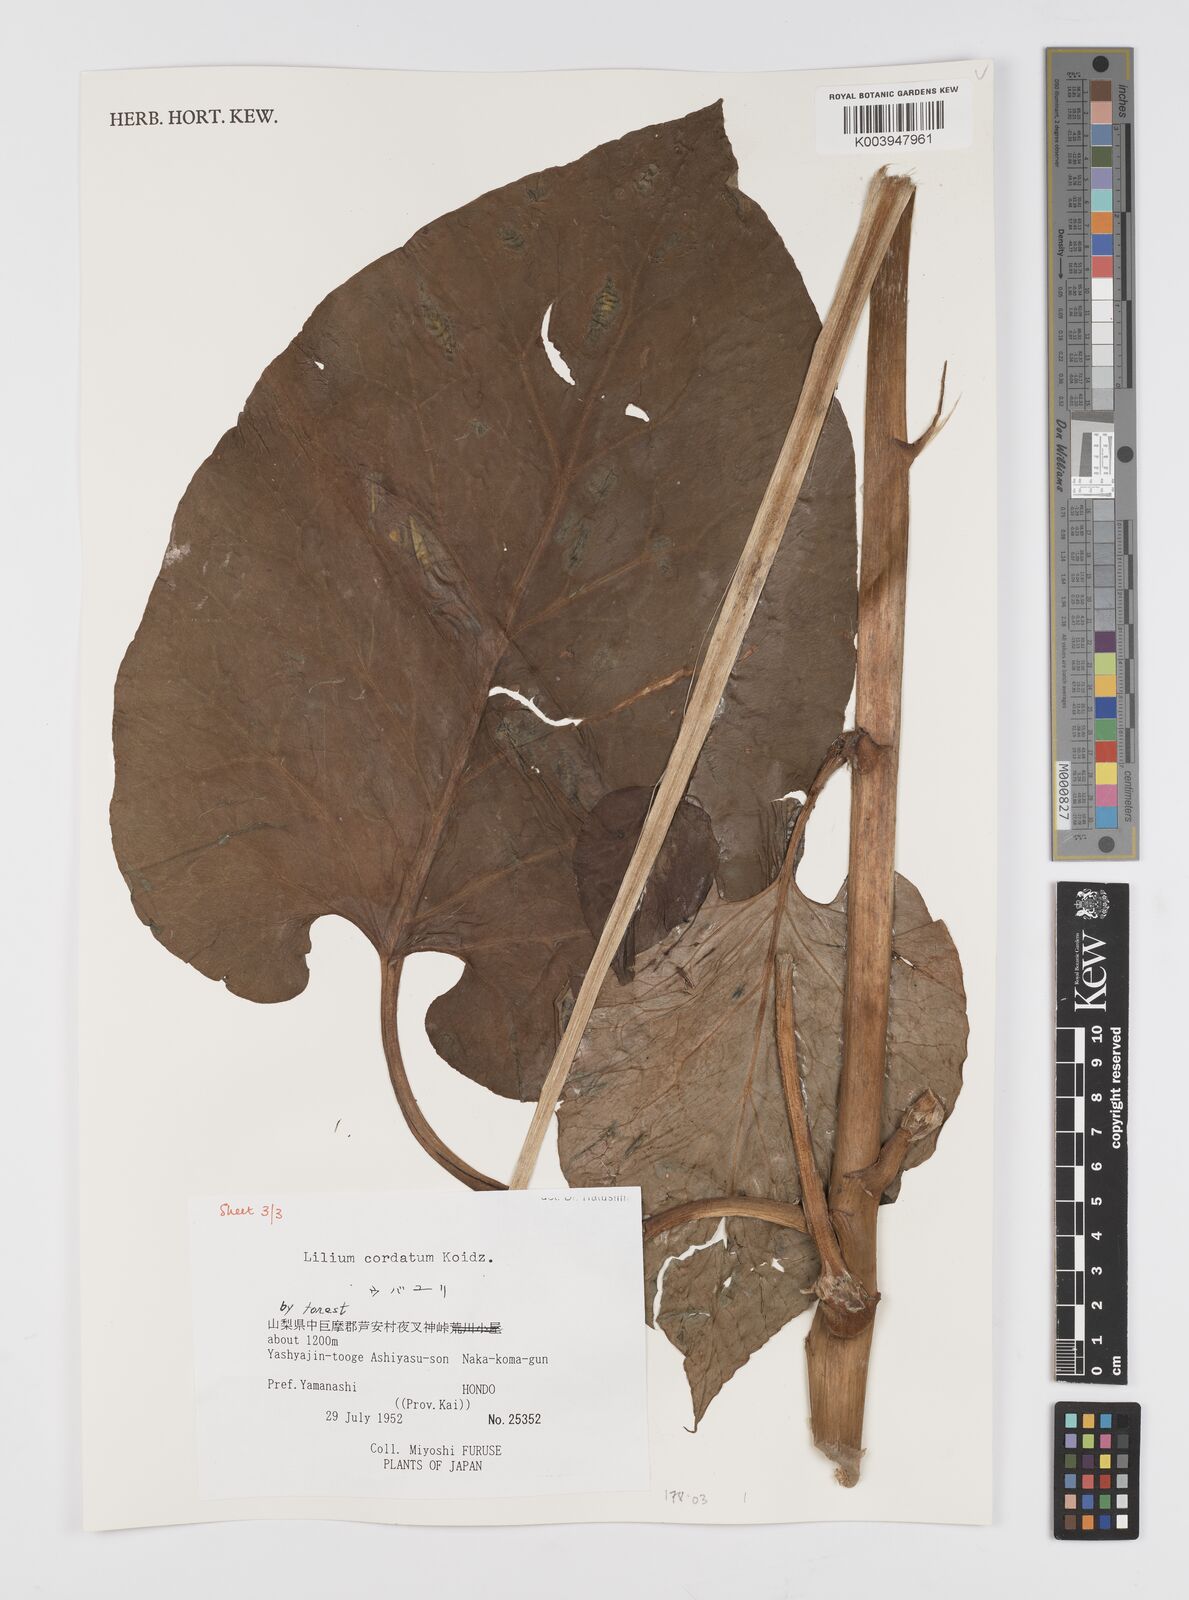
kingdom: Plantae
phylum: Tracheophyta
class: Liliopsida
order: Liliales
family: Liliaceae
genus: Cardiocrinum
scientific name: Cardiocrinum cordatum
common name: Lily
